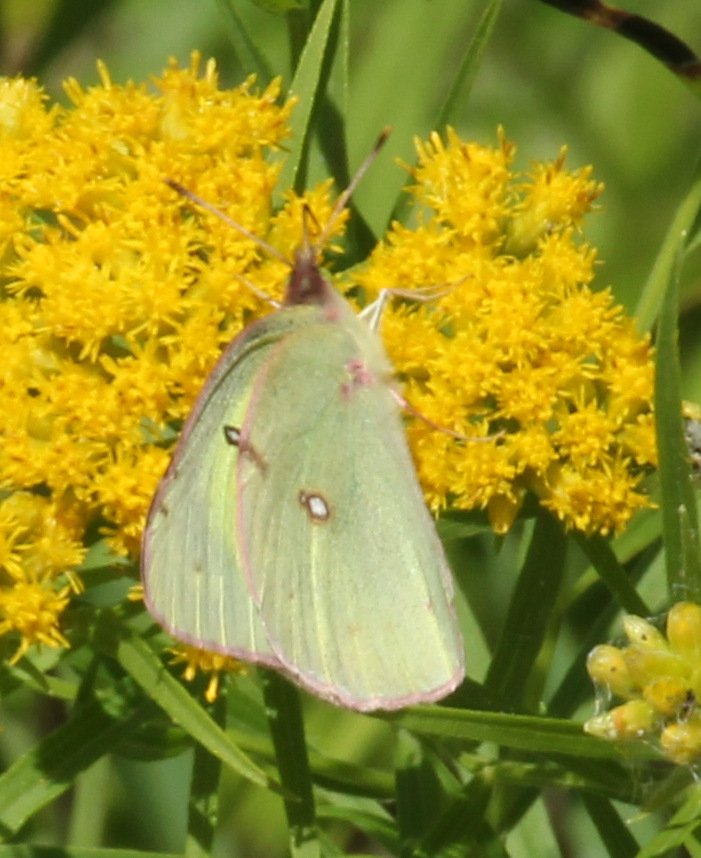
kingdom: Animalia
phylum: Arthropoda
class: Insecta
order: Lepidoptera
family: Pieridae
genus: Colias
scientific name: Colias philodice
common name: Clouded Sulphur
